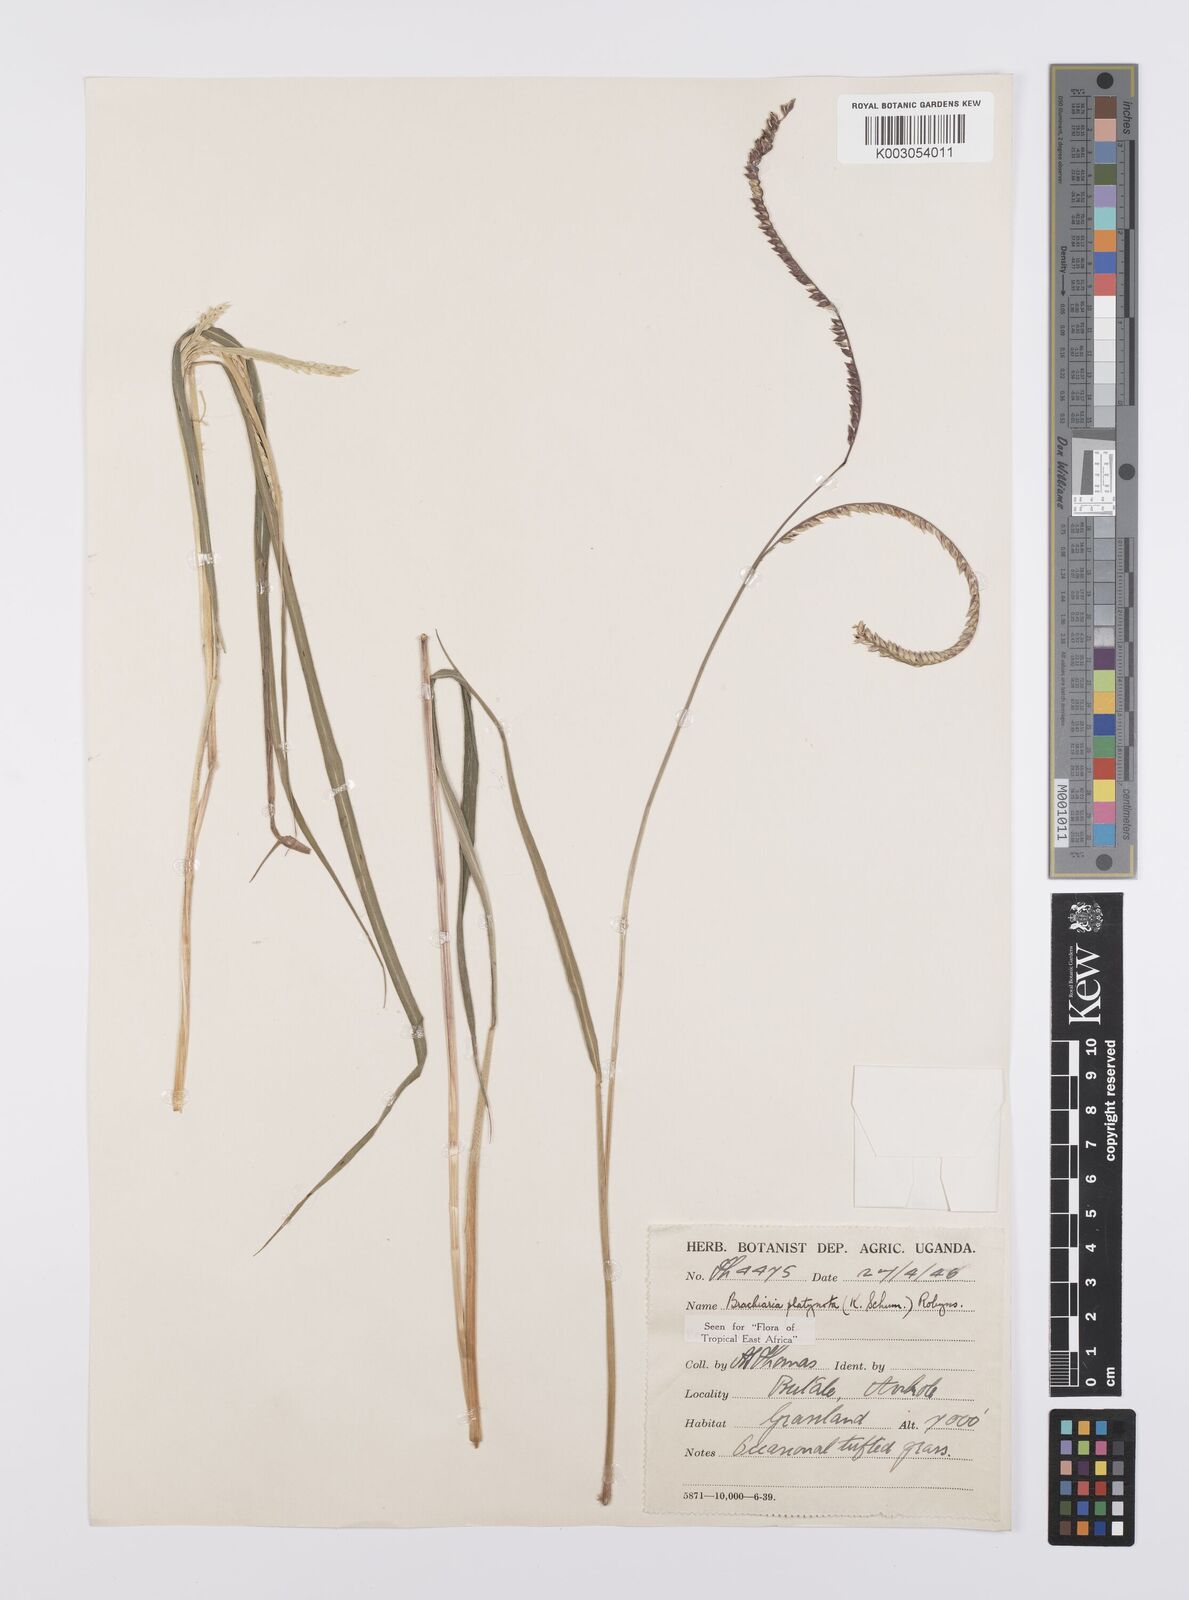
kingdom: Plantae
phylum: Tracheophyta
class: Liliopsida
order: Poales
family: Poaceae
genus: Urochloa
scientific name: Urochloa platynota
